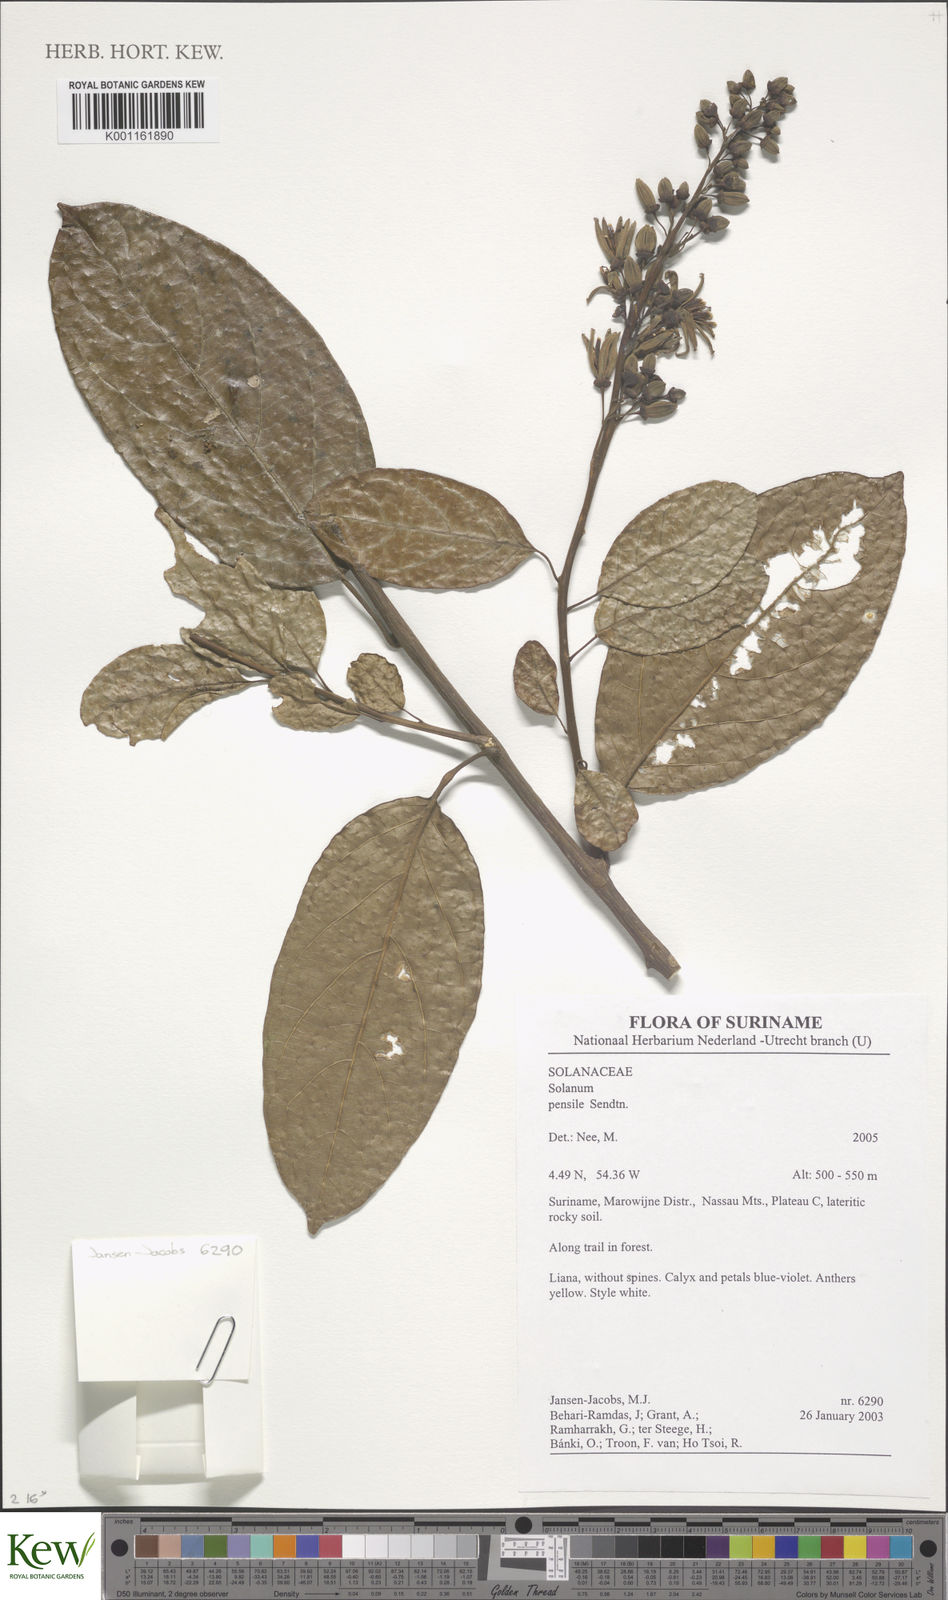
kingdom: Plantae
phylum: Tracheophyta
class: Magnoliopsida
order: Solanales
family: Solanaceae
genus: Solanum
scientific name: Solanum uncinellum
